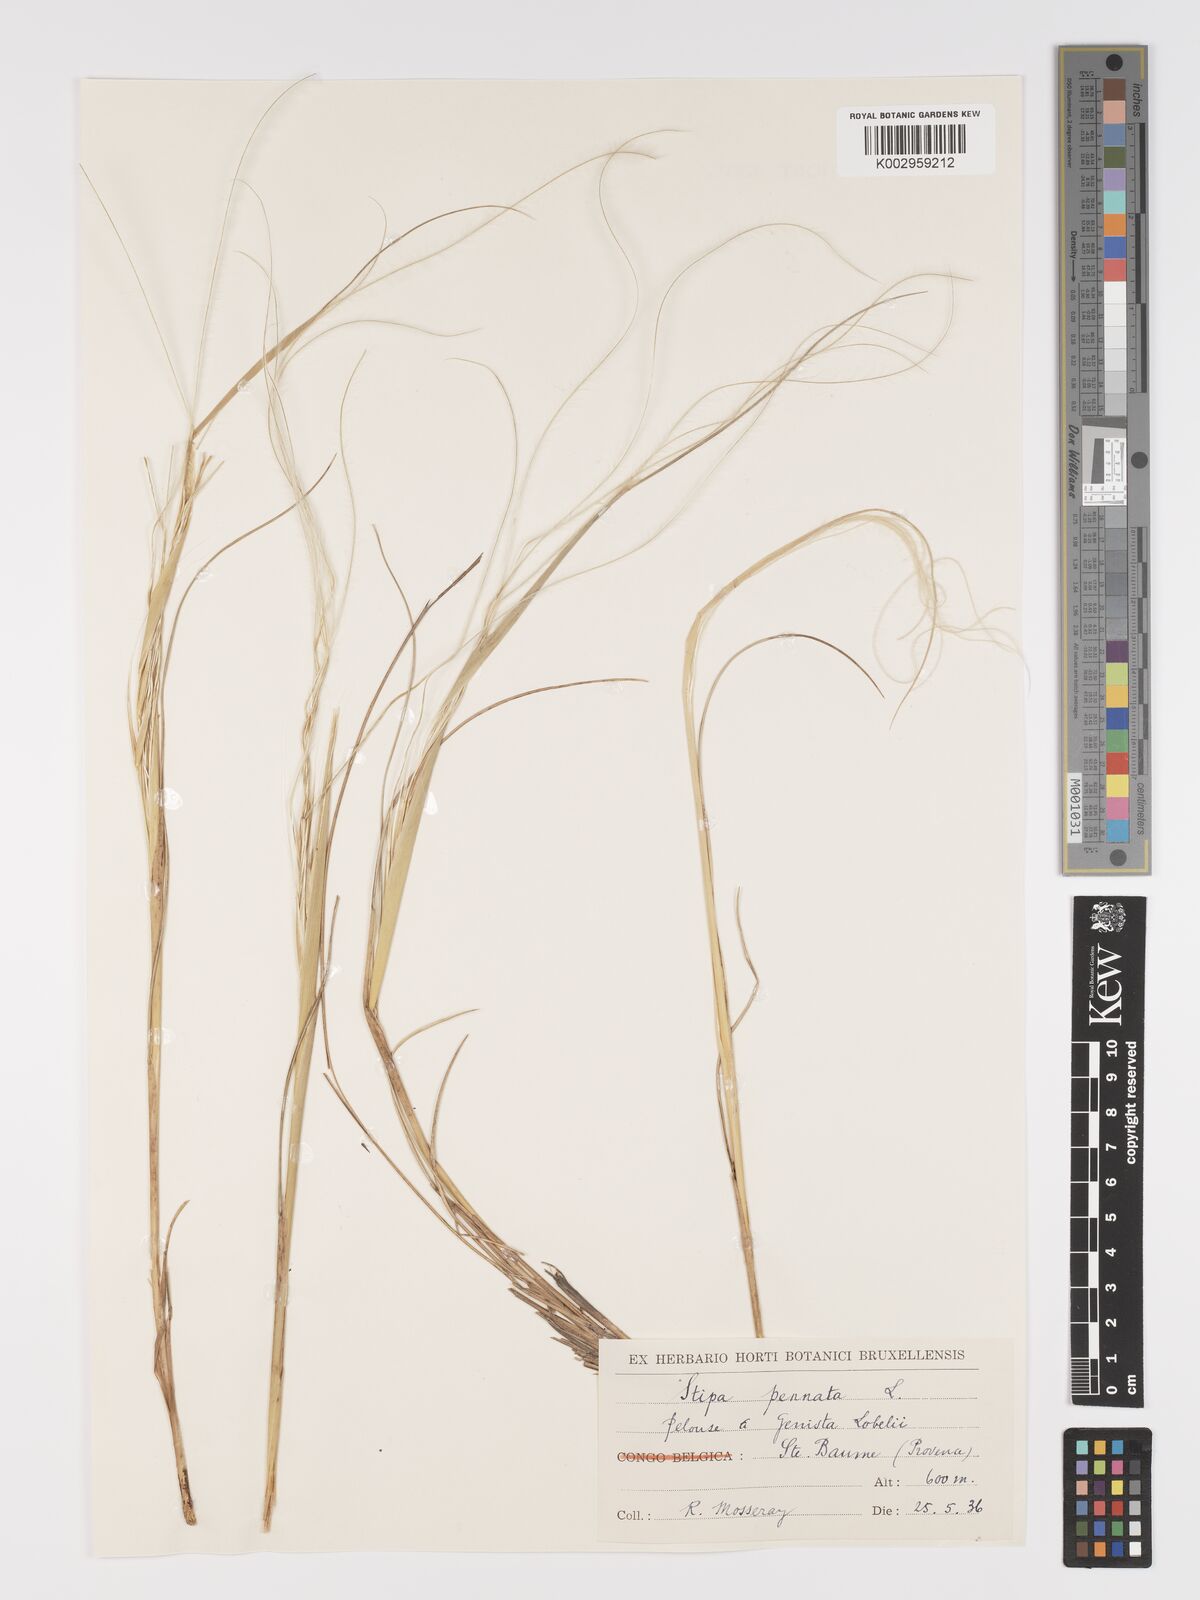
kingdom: Plantae
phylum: Tracheophyta
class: Liliopsida
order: Poales
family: Poaceae
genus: Stipa
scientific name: Stipa pennata
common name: European feather grass
